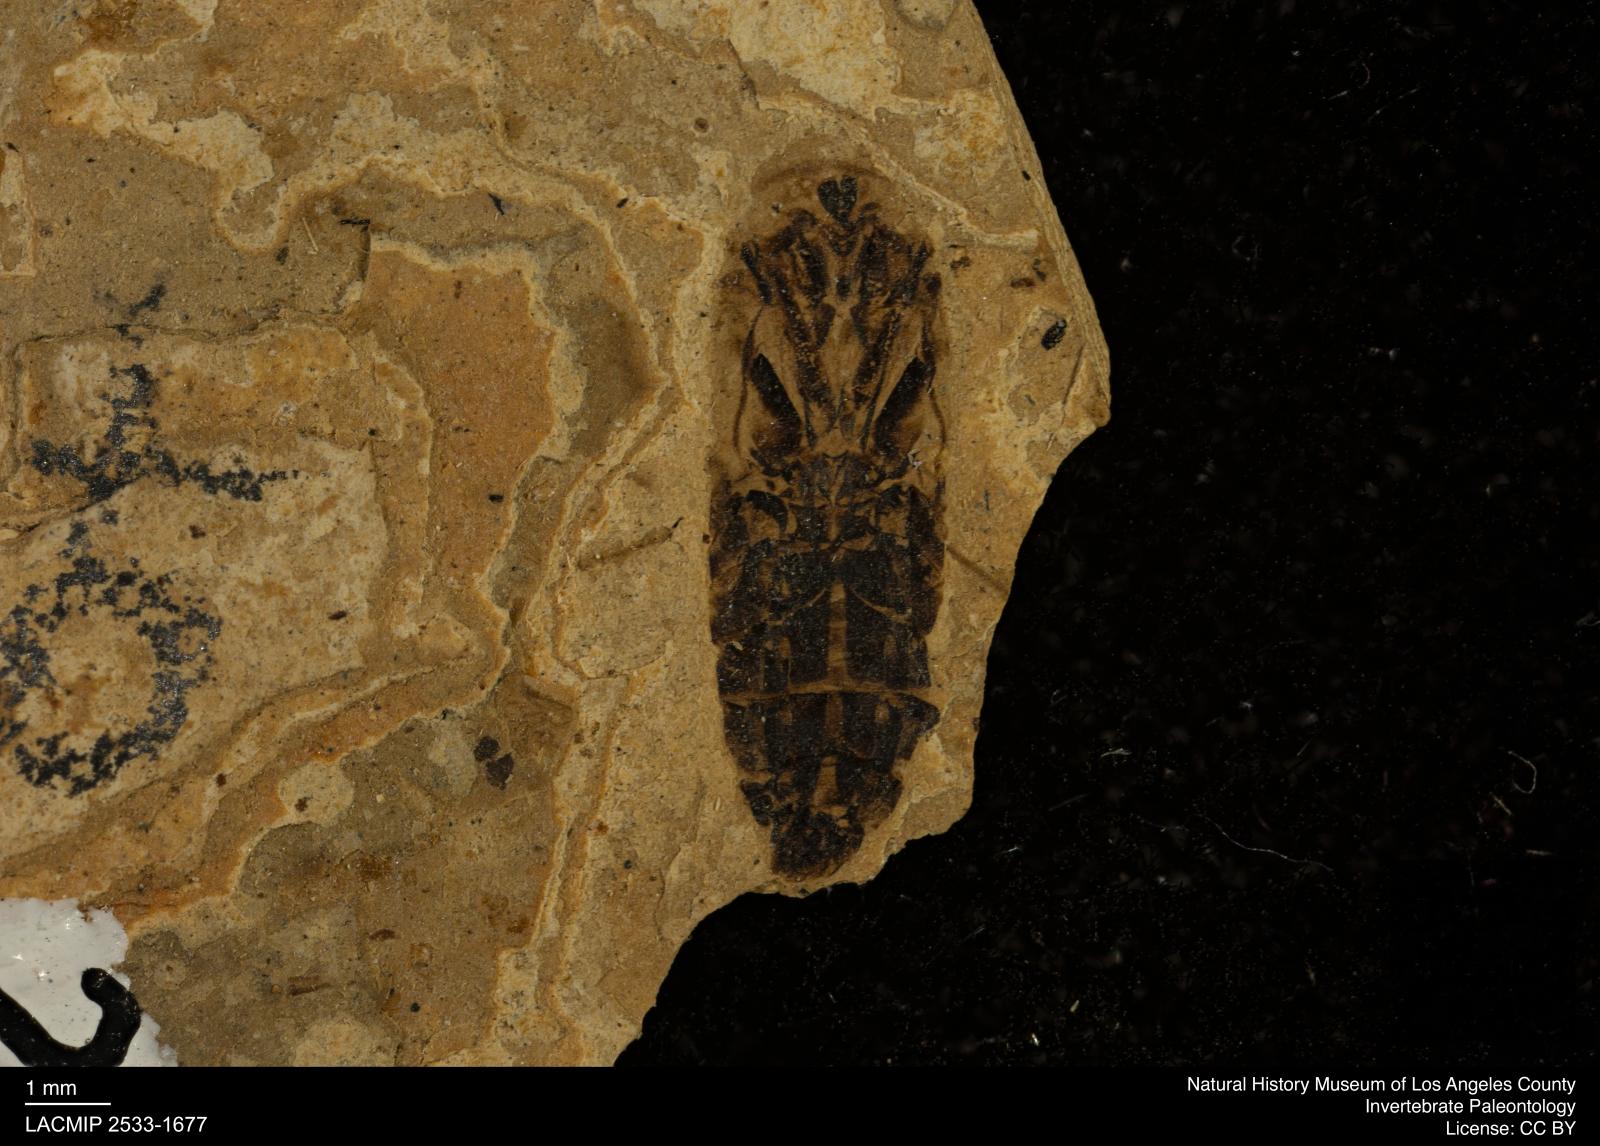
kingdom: Animalia
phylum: Arthropoda
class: Insecta
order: Hemiptera
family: Notonectidae
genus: Notonecta
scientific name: Notonecta
